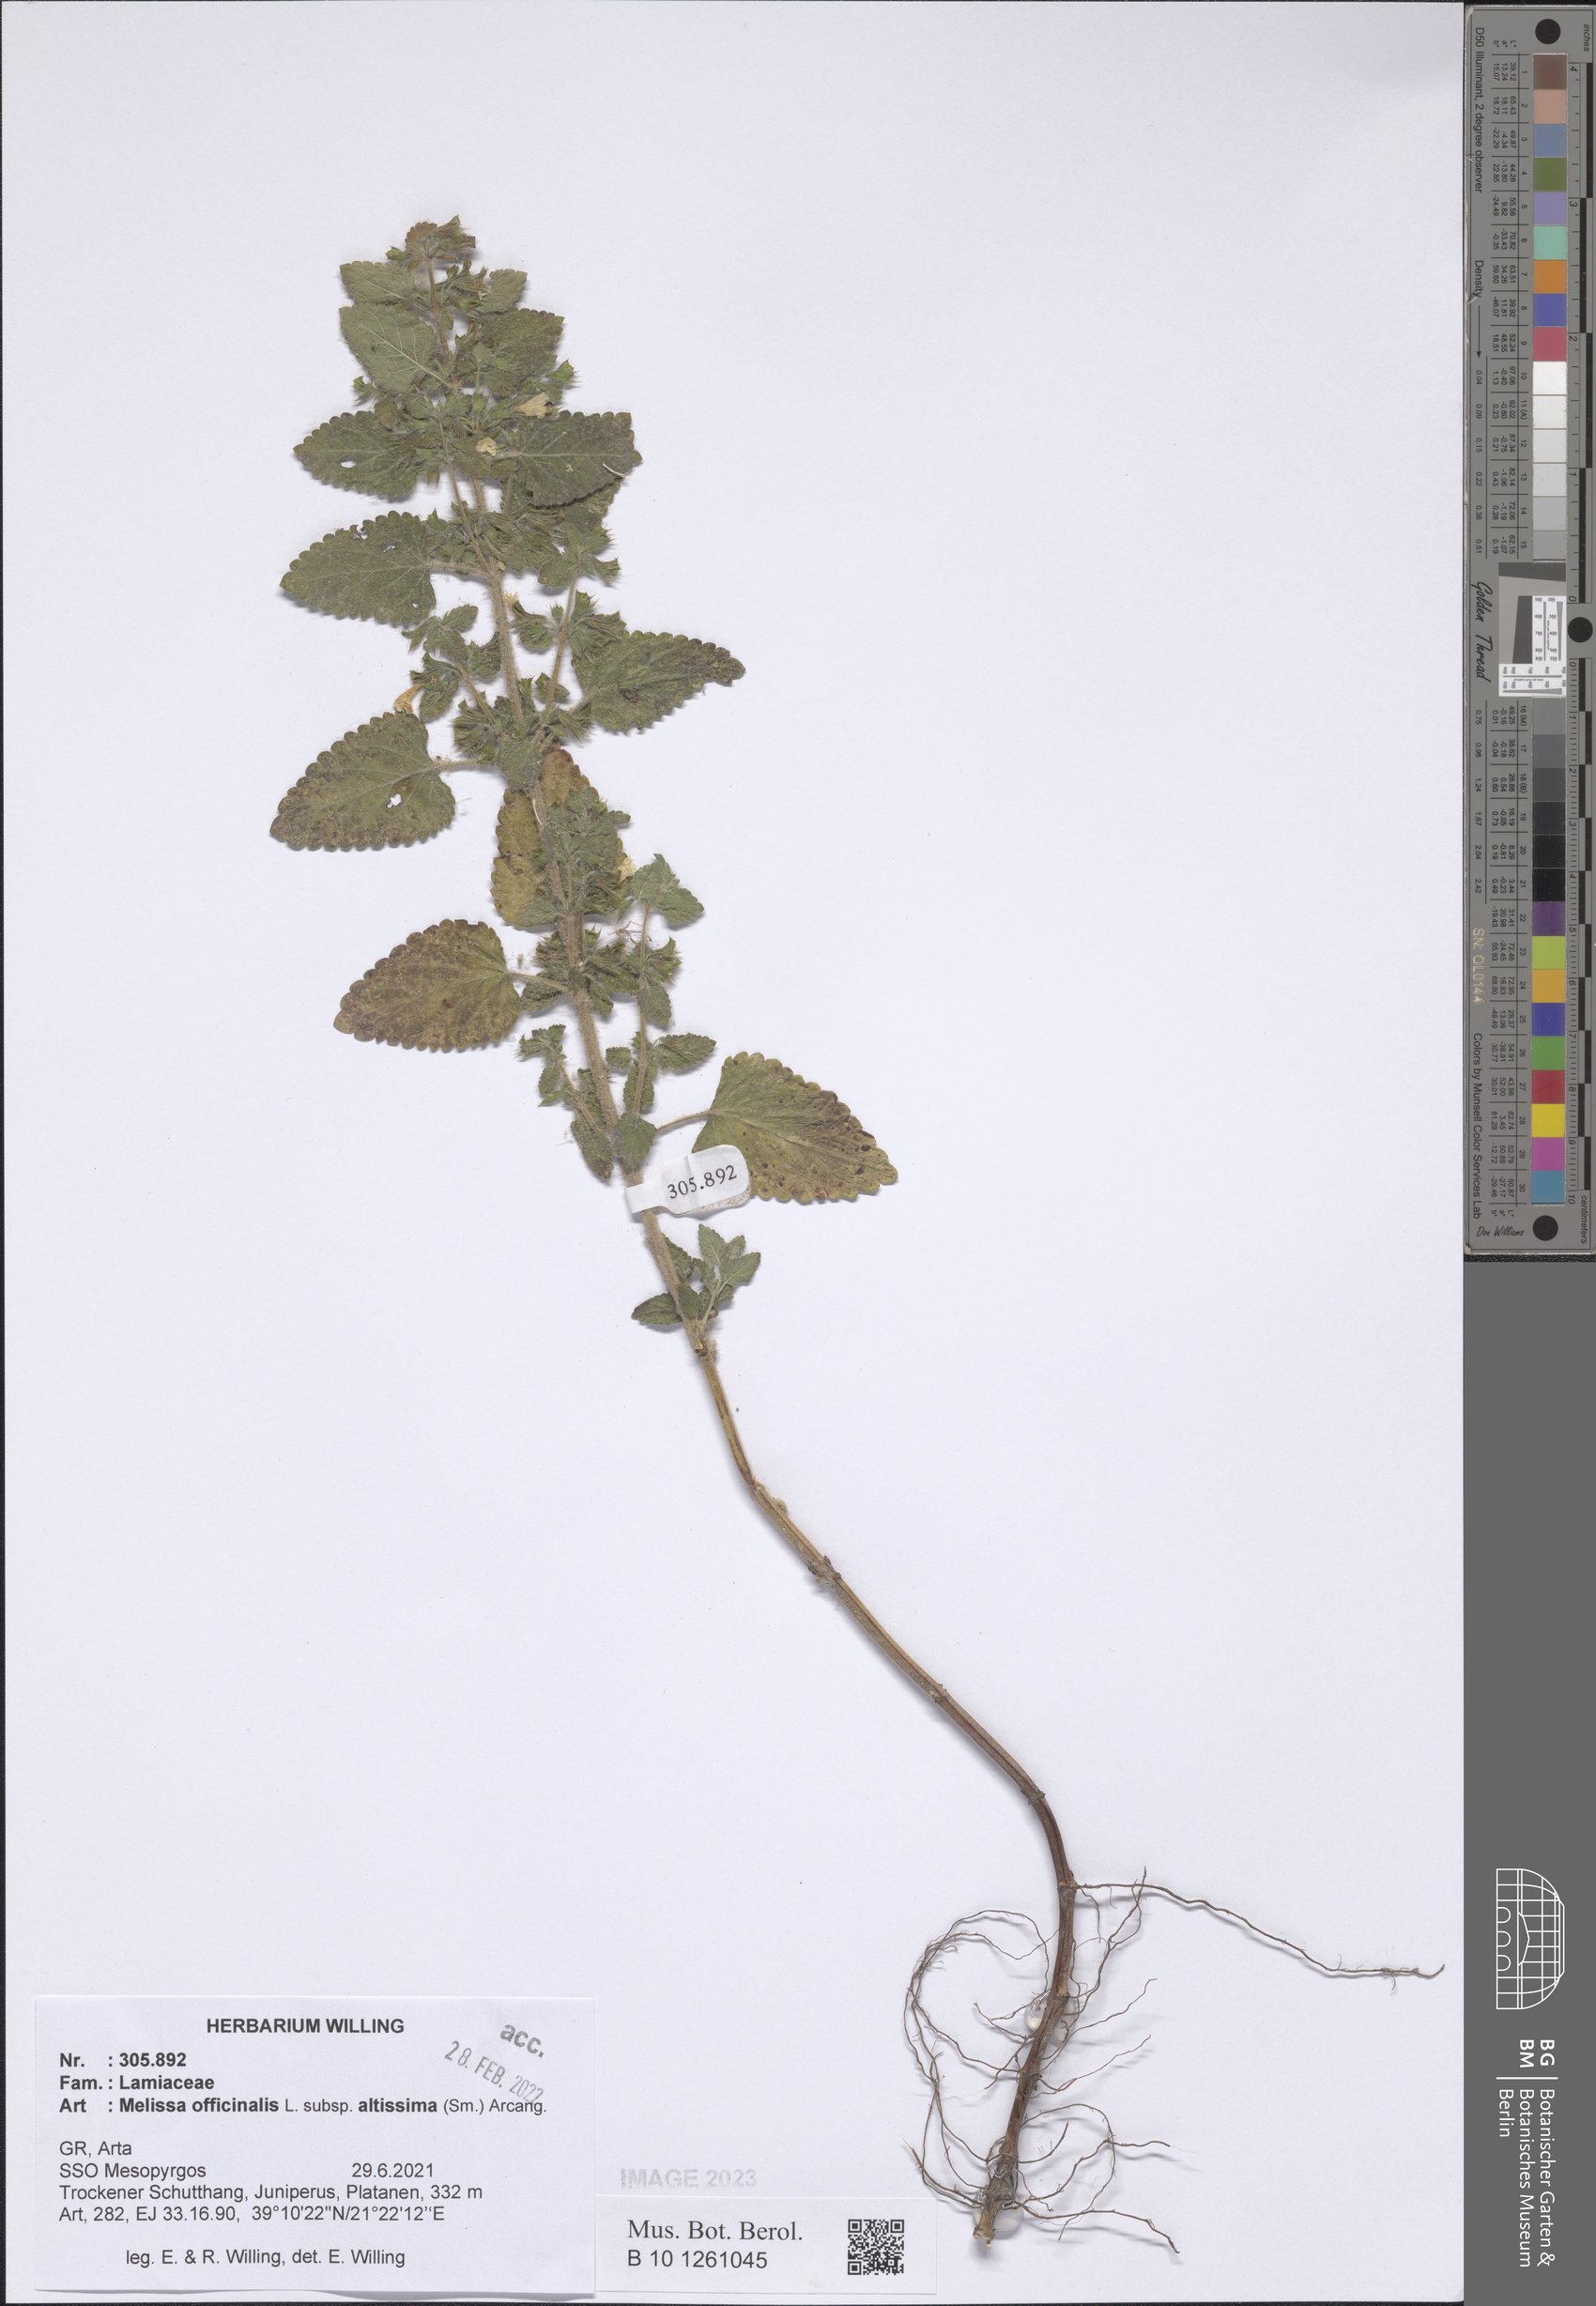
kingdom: Plantae
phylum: Tracheophyta
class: Magnoliopsida
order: Lamiales
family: Lamiaceae
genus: Melissa
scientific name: Melissa officinalis
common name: Balm
